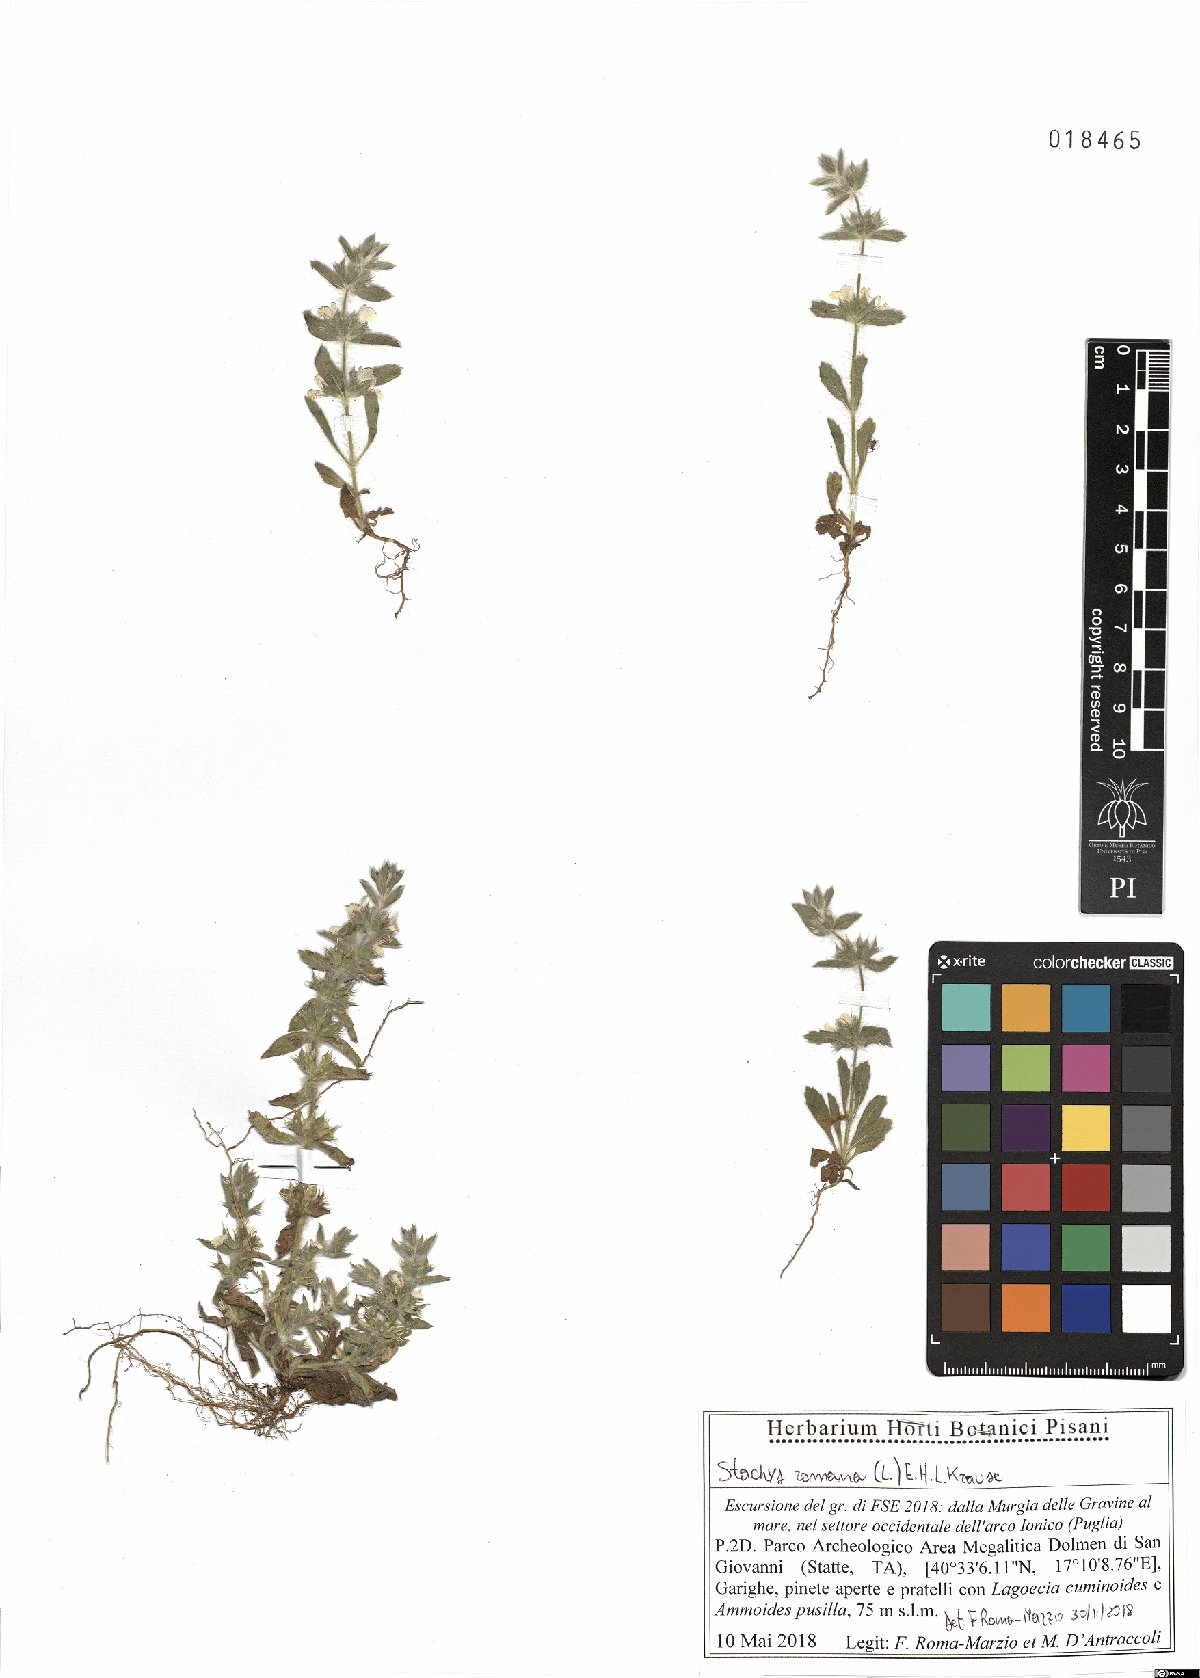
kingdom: Plantae
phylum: Tracheophyta
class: Magnoliopsida
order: Lamiales
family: Lamiaceae
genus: Sideritis
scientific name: Sideritis romana
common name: Simplebeak ironwort
